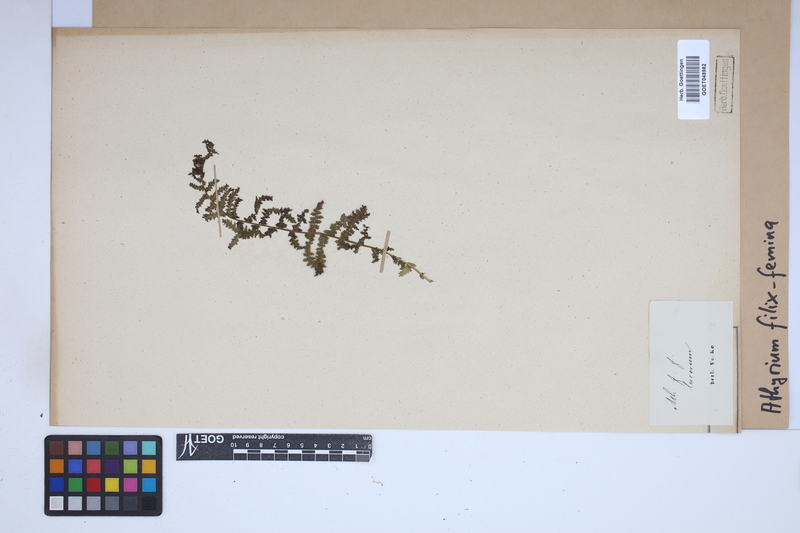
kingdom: Plantae
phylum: Tracheophyta
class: Polypodiopsida
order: Polypodiales
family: Athyriaceae
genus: Athyrium
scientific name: Athyrium filix-femina
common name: Lady fern
